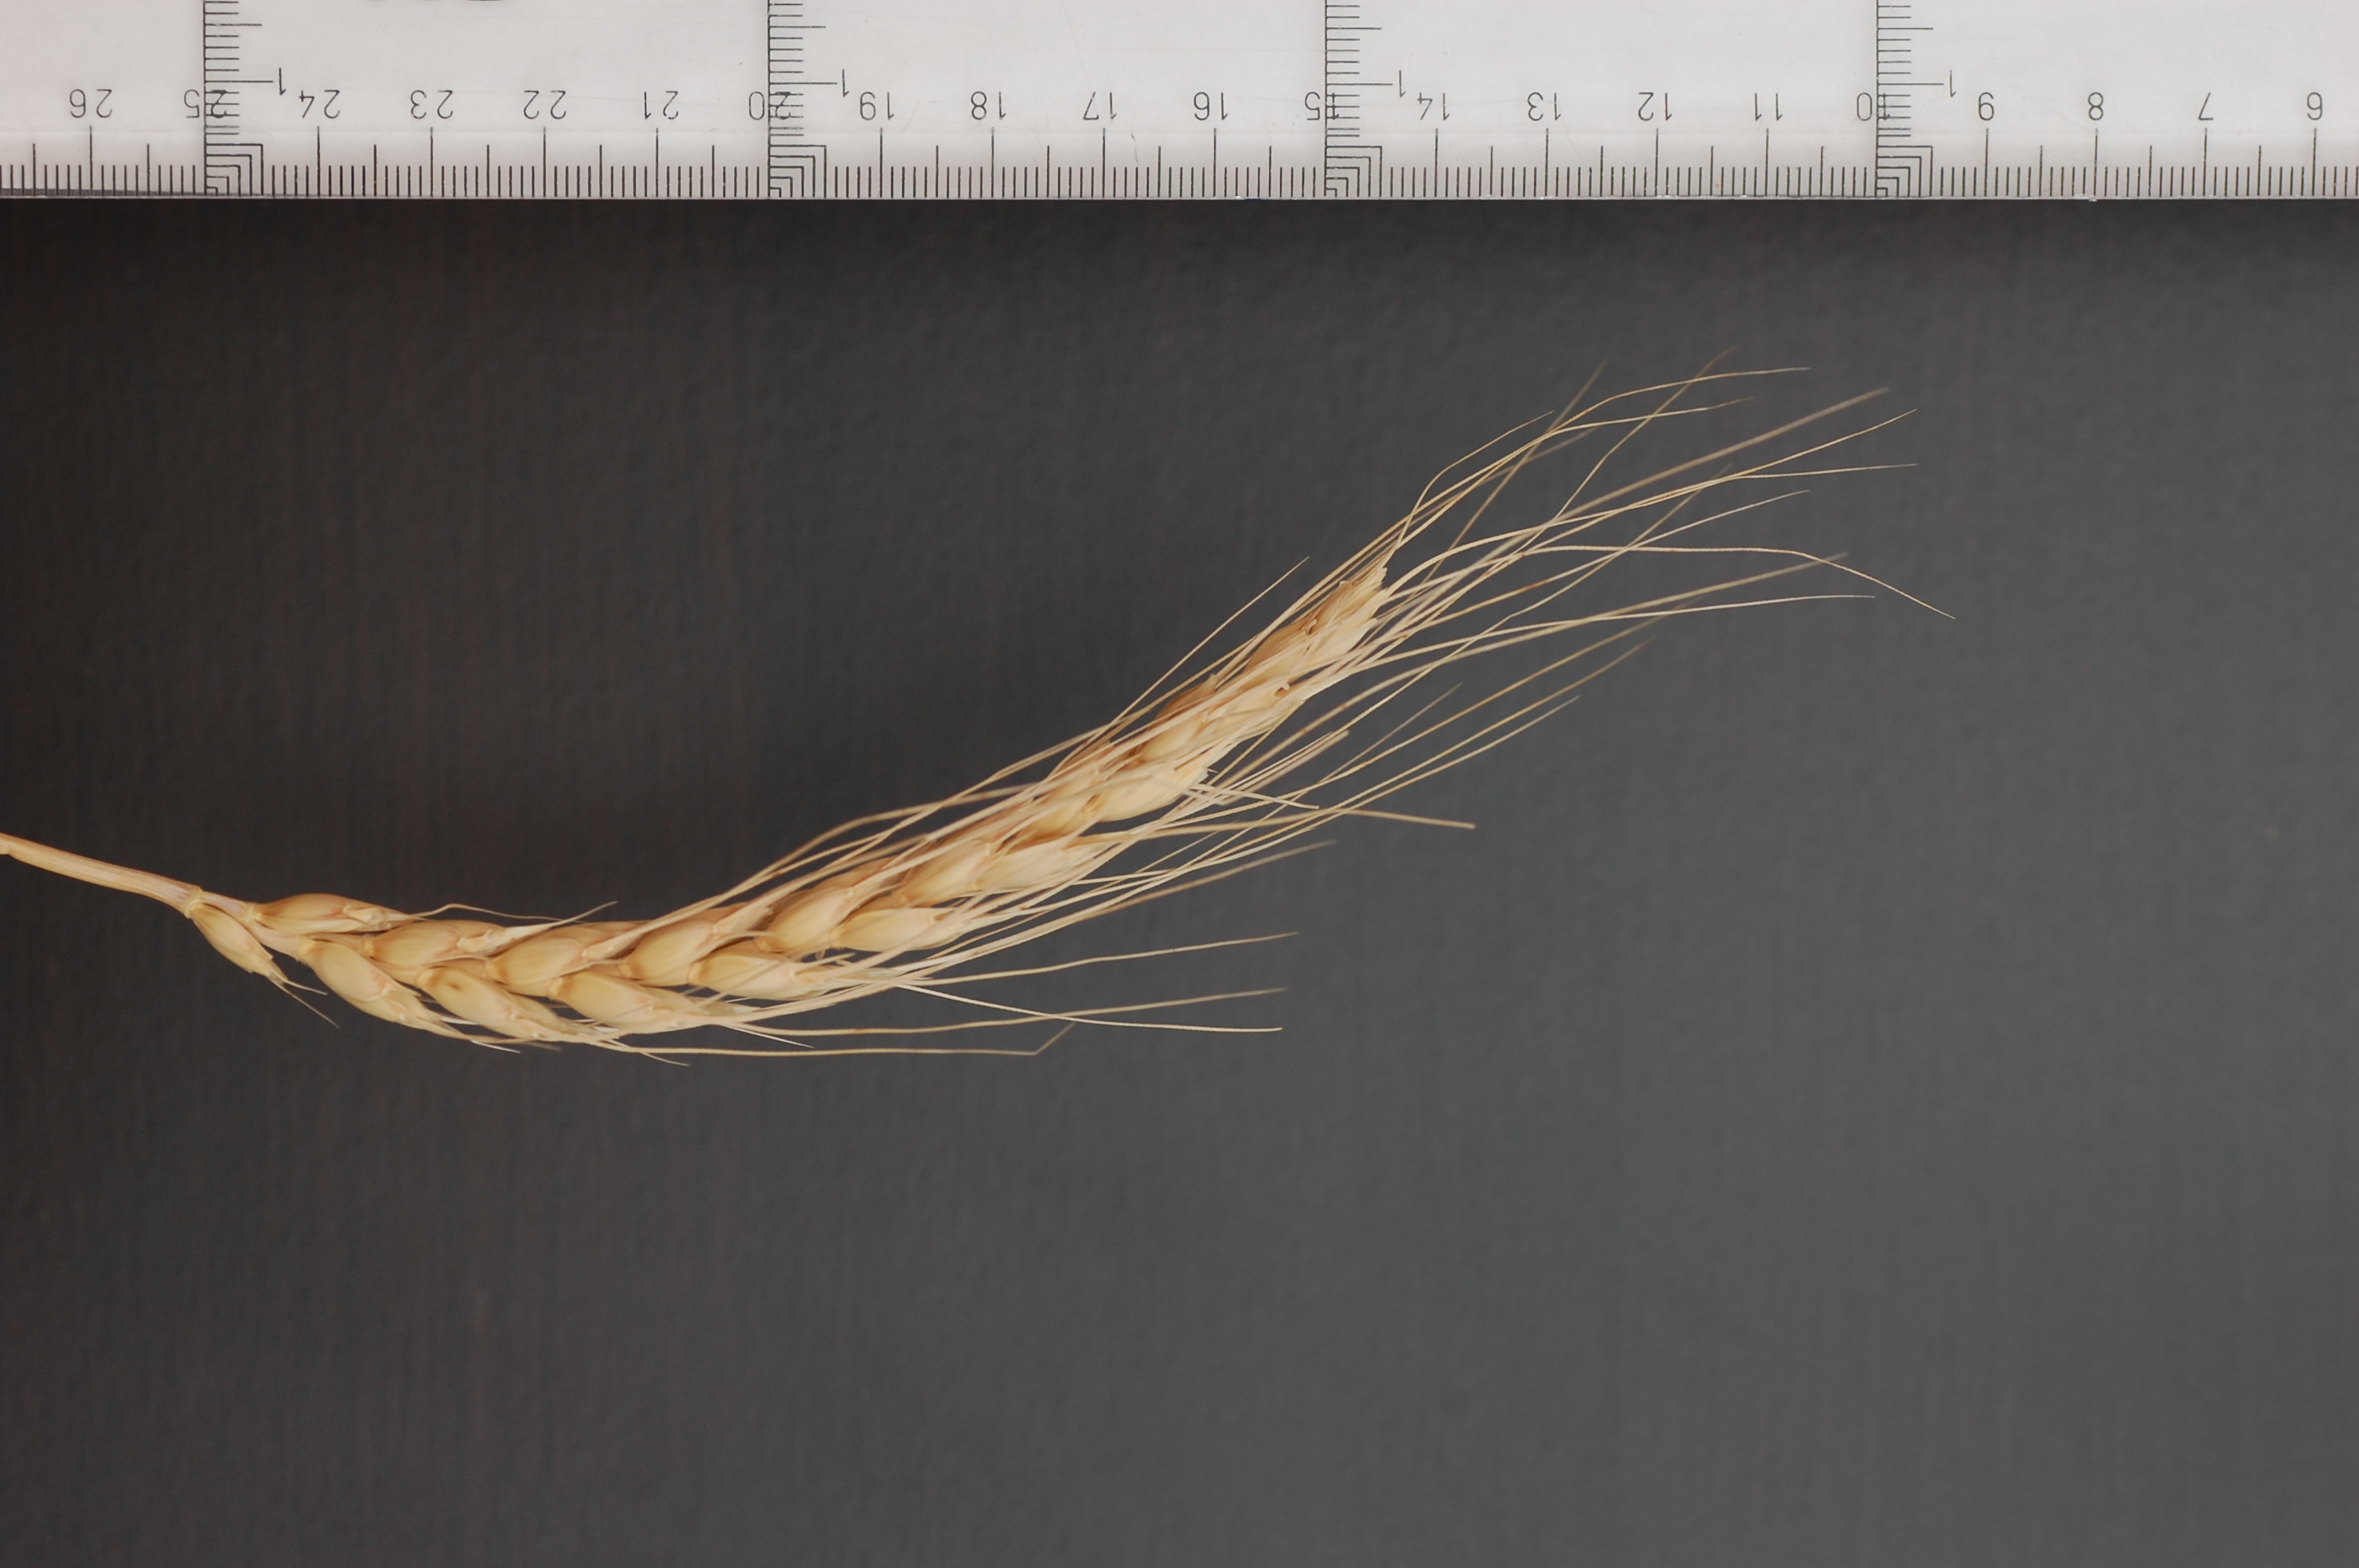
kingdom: Plantae
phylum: Tracheophyta
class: Liliopsida
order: Poales
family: Poaceae
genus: Triticum
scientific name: Triticum aestivum
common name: Common wheat
